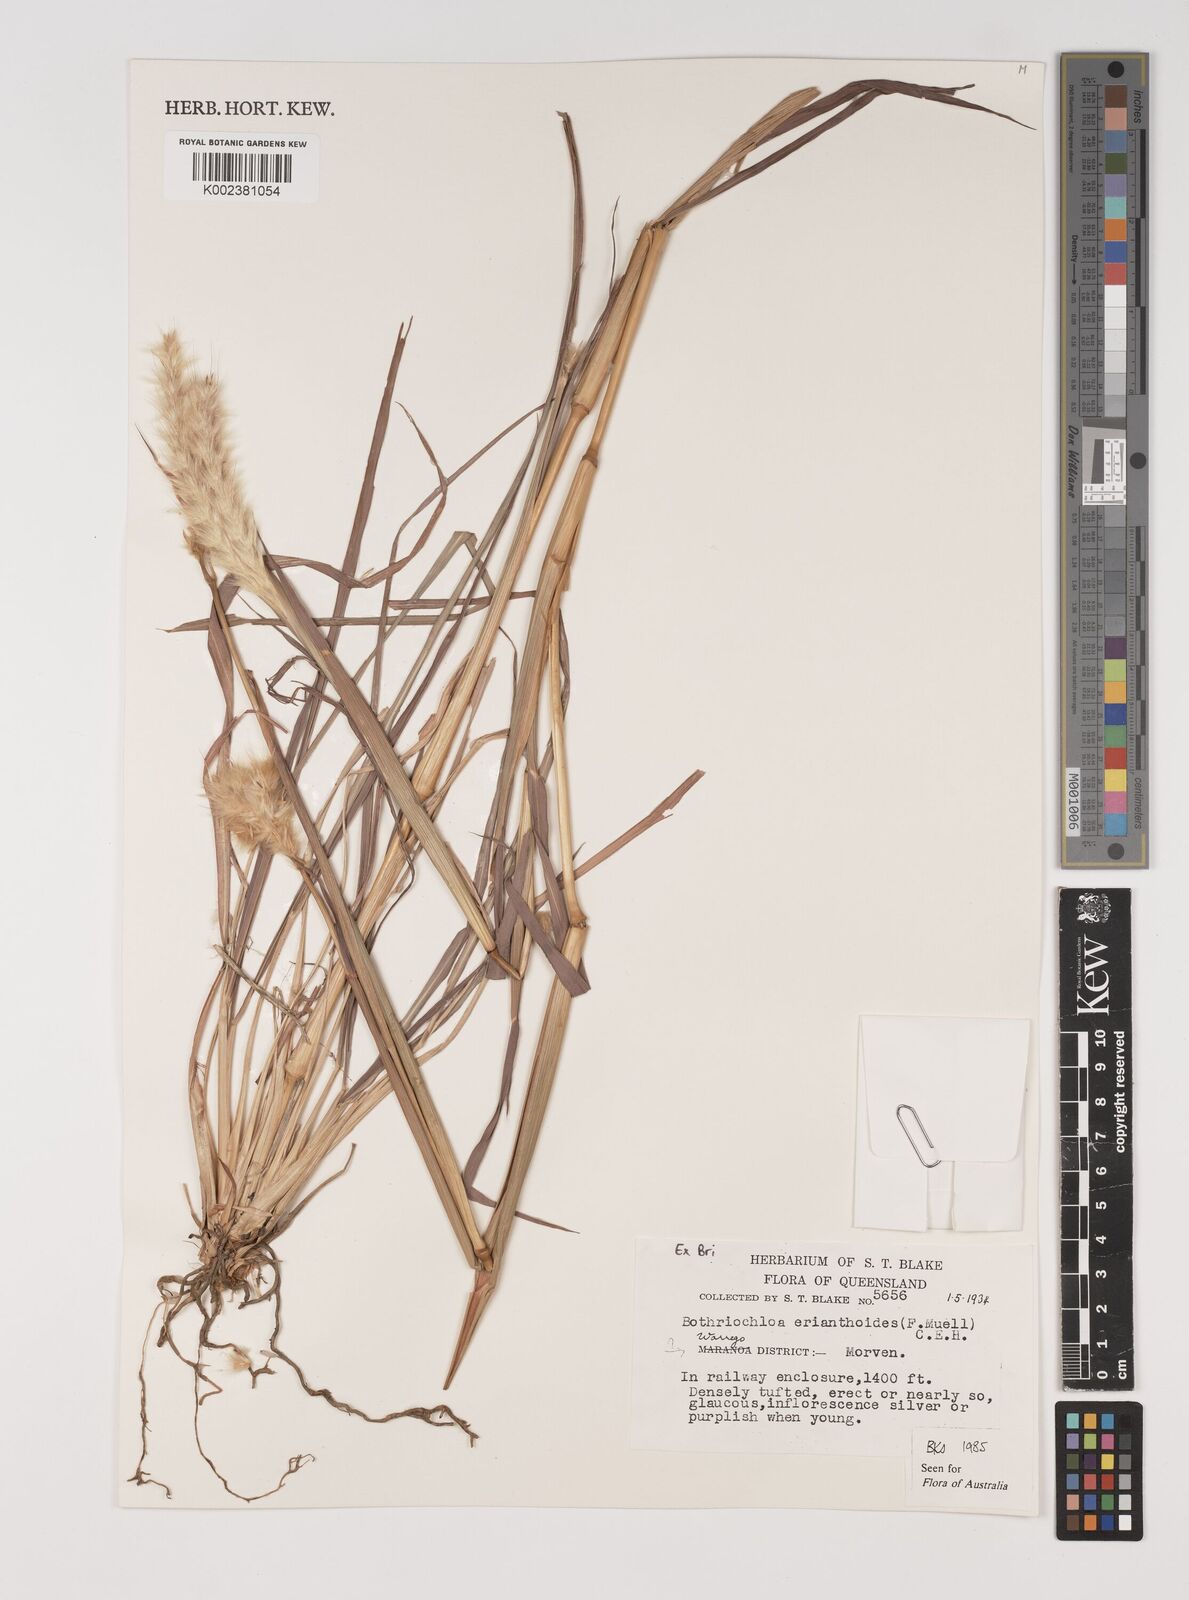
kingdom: Plantae
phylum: Tracheophyta
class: Liliopsida
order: Poales
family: Poaceae
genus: Bothriochloa
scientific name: Bothriochloa erianthoides
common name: Satin-top grass
